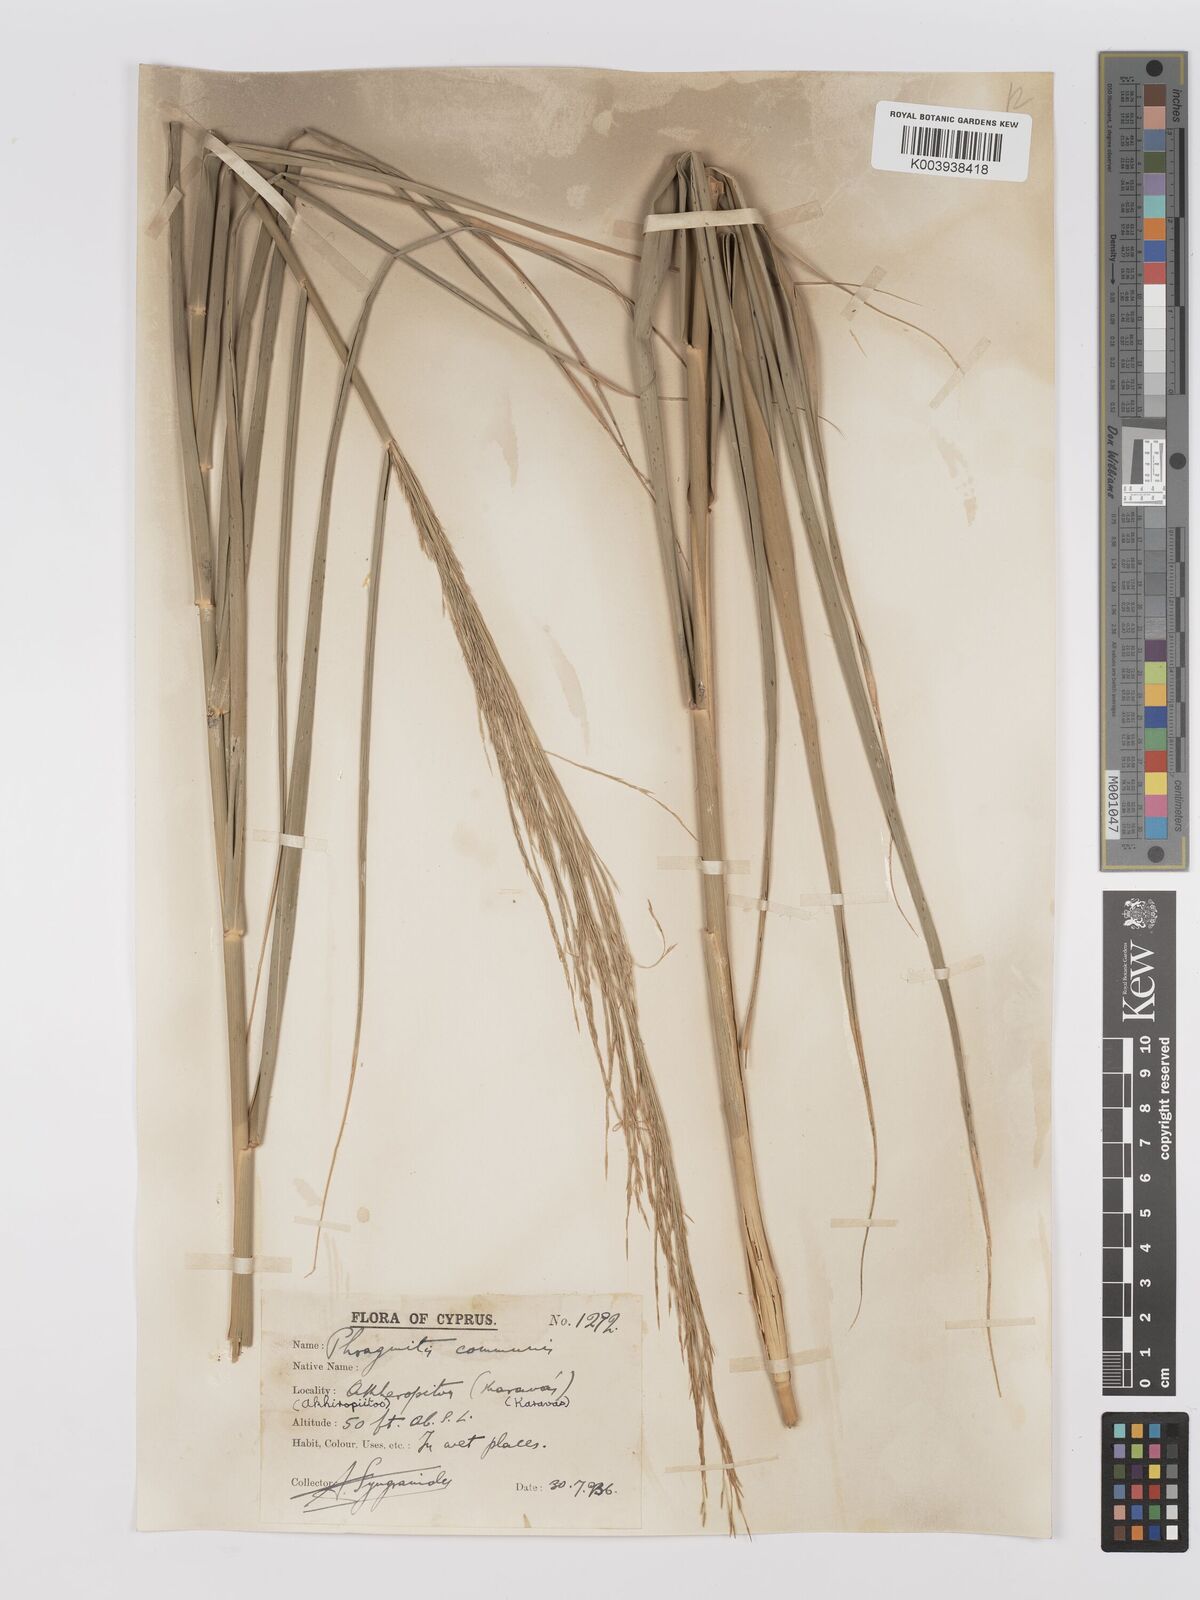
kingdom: Plantae
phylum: Tracheophyta
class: Liliopsida
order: Poales
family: Poaceae
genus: Phragmites
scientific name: Phragmites australis
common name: Common reed
